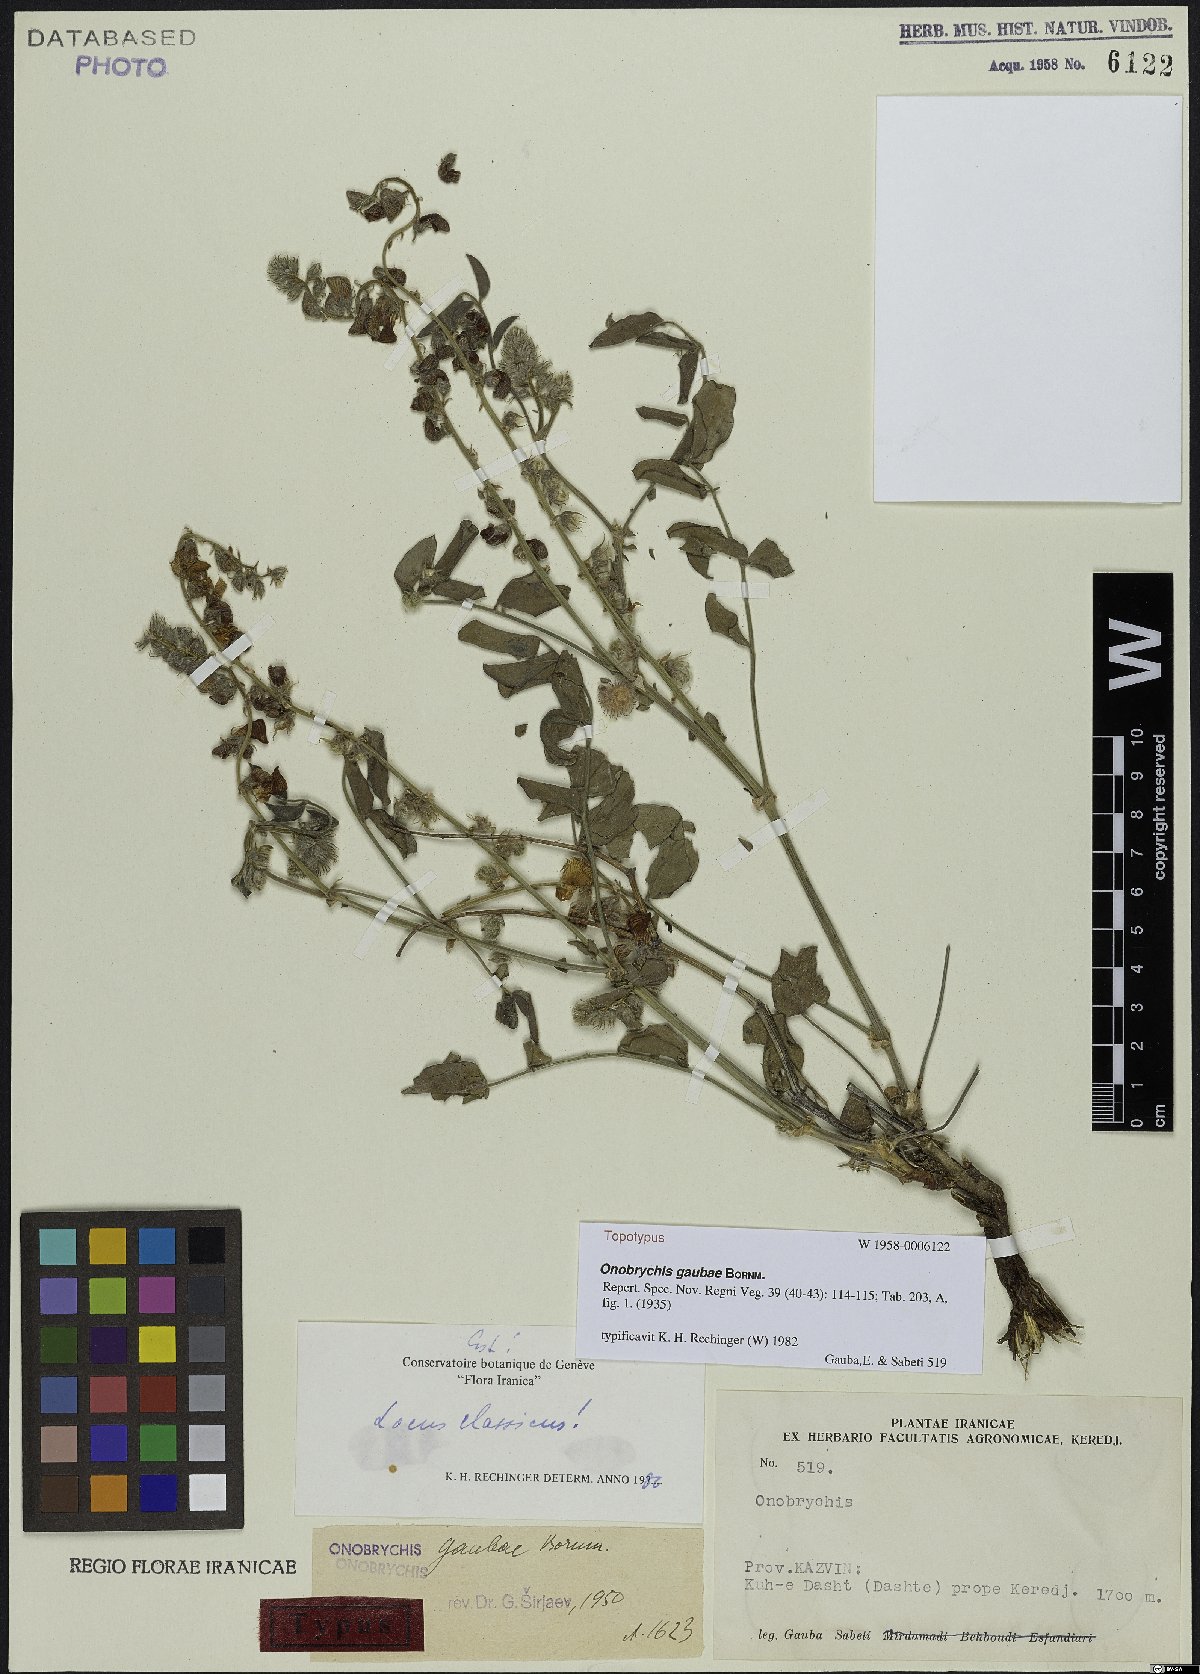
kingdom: Plantae
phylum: Tracheophyta
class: Magnoliopsida
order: Fabales
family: Fabaceae
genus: Onobrychis
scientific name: Onobrychis gaubae
